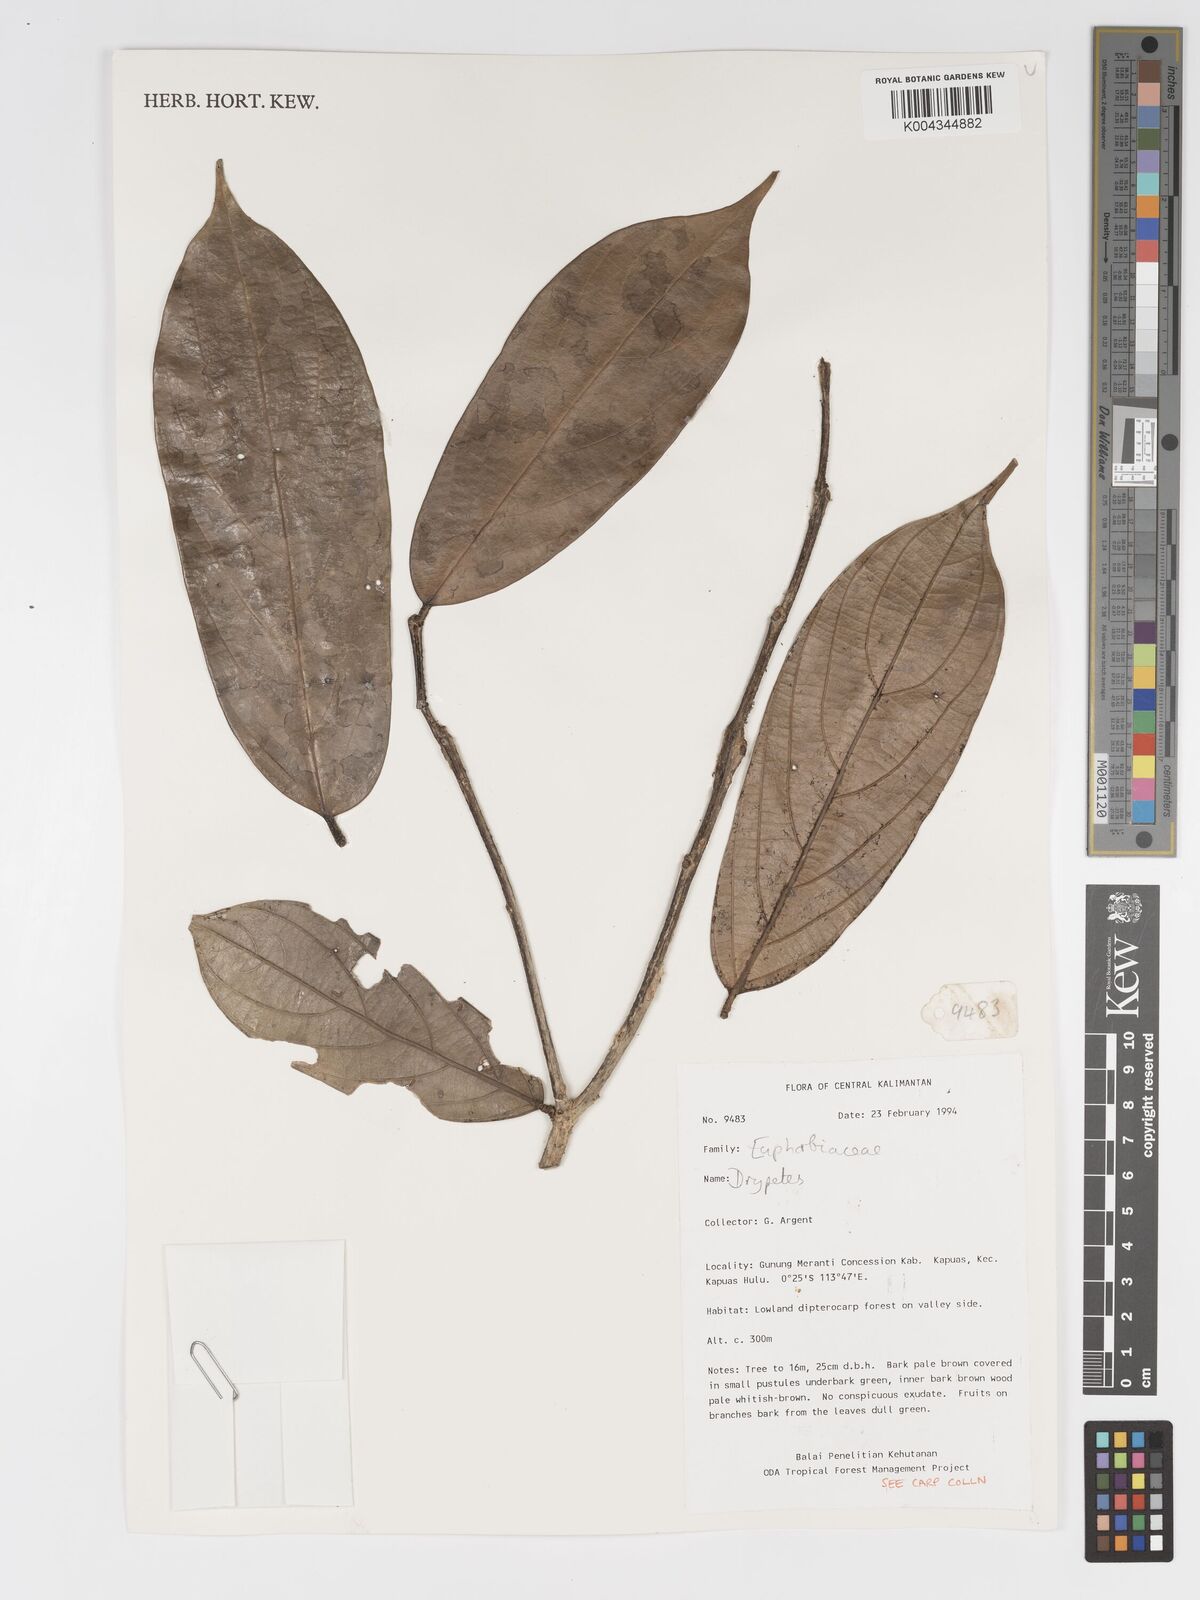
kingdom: Plantae
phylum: Tracheophyta
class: Magnoliopsida
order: Malpighiales
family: Putranjivaceae
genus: Drypetes
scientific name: Drypetes
